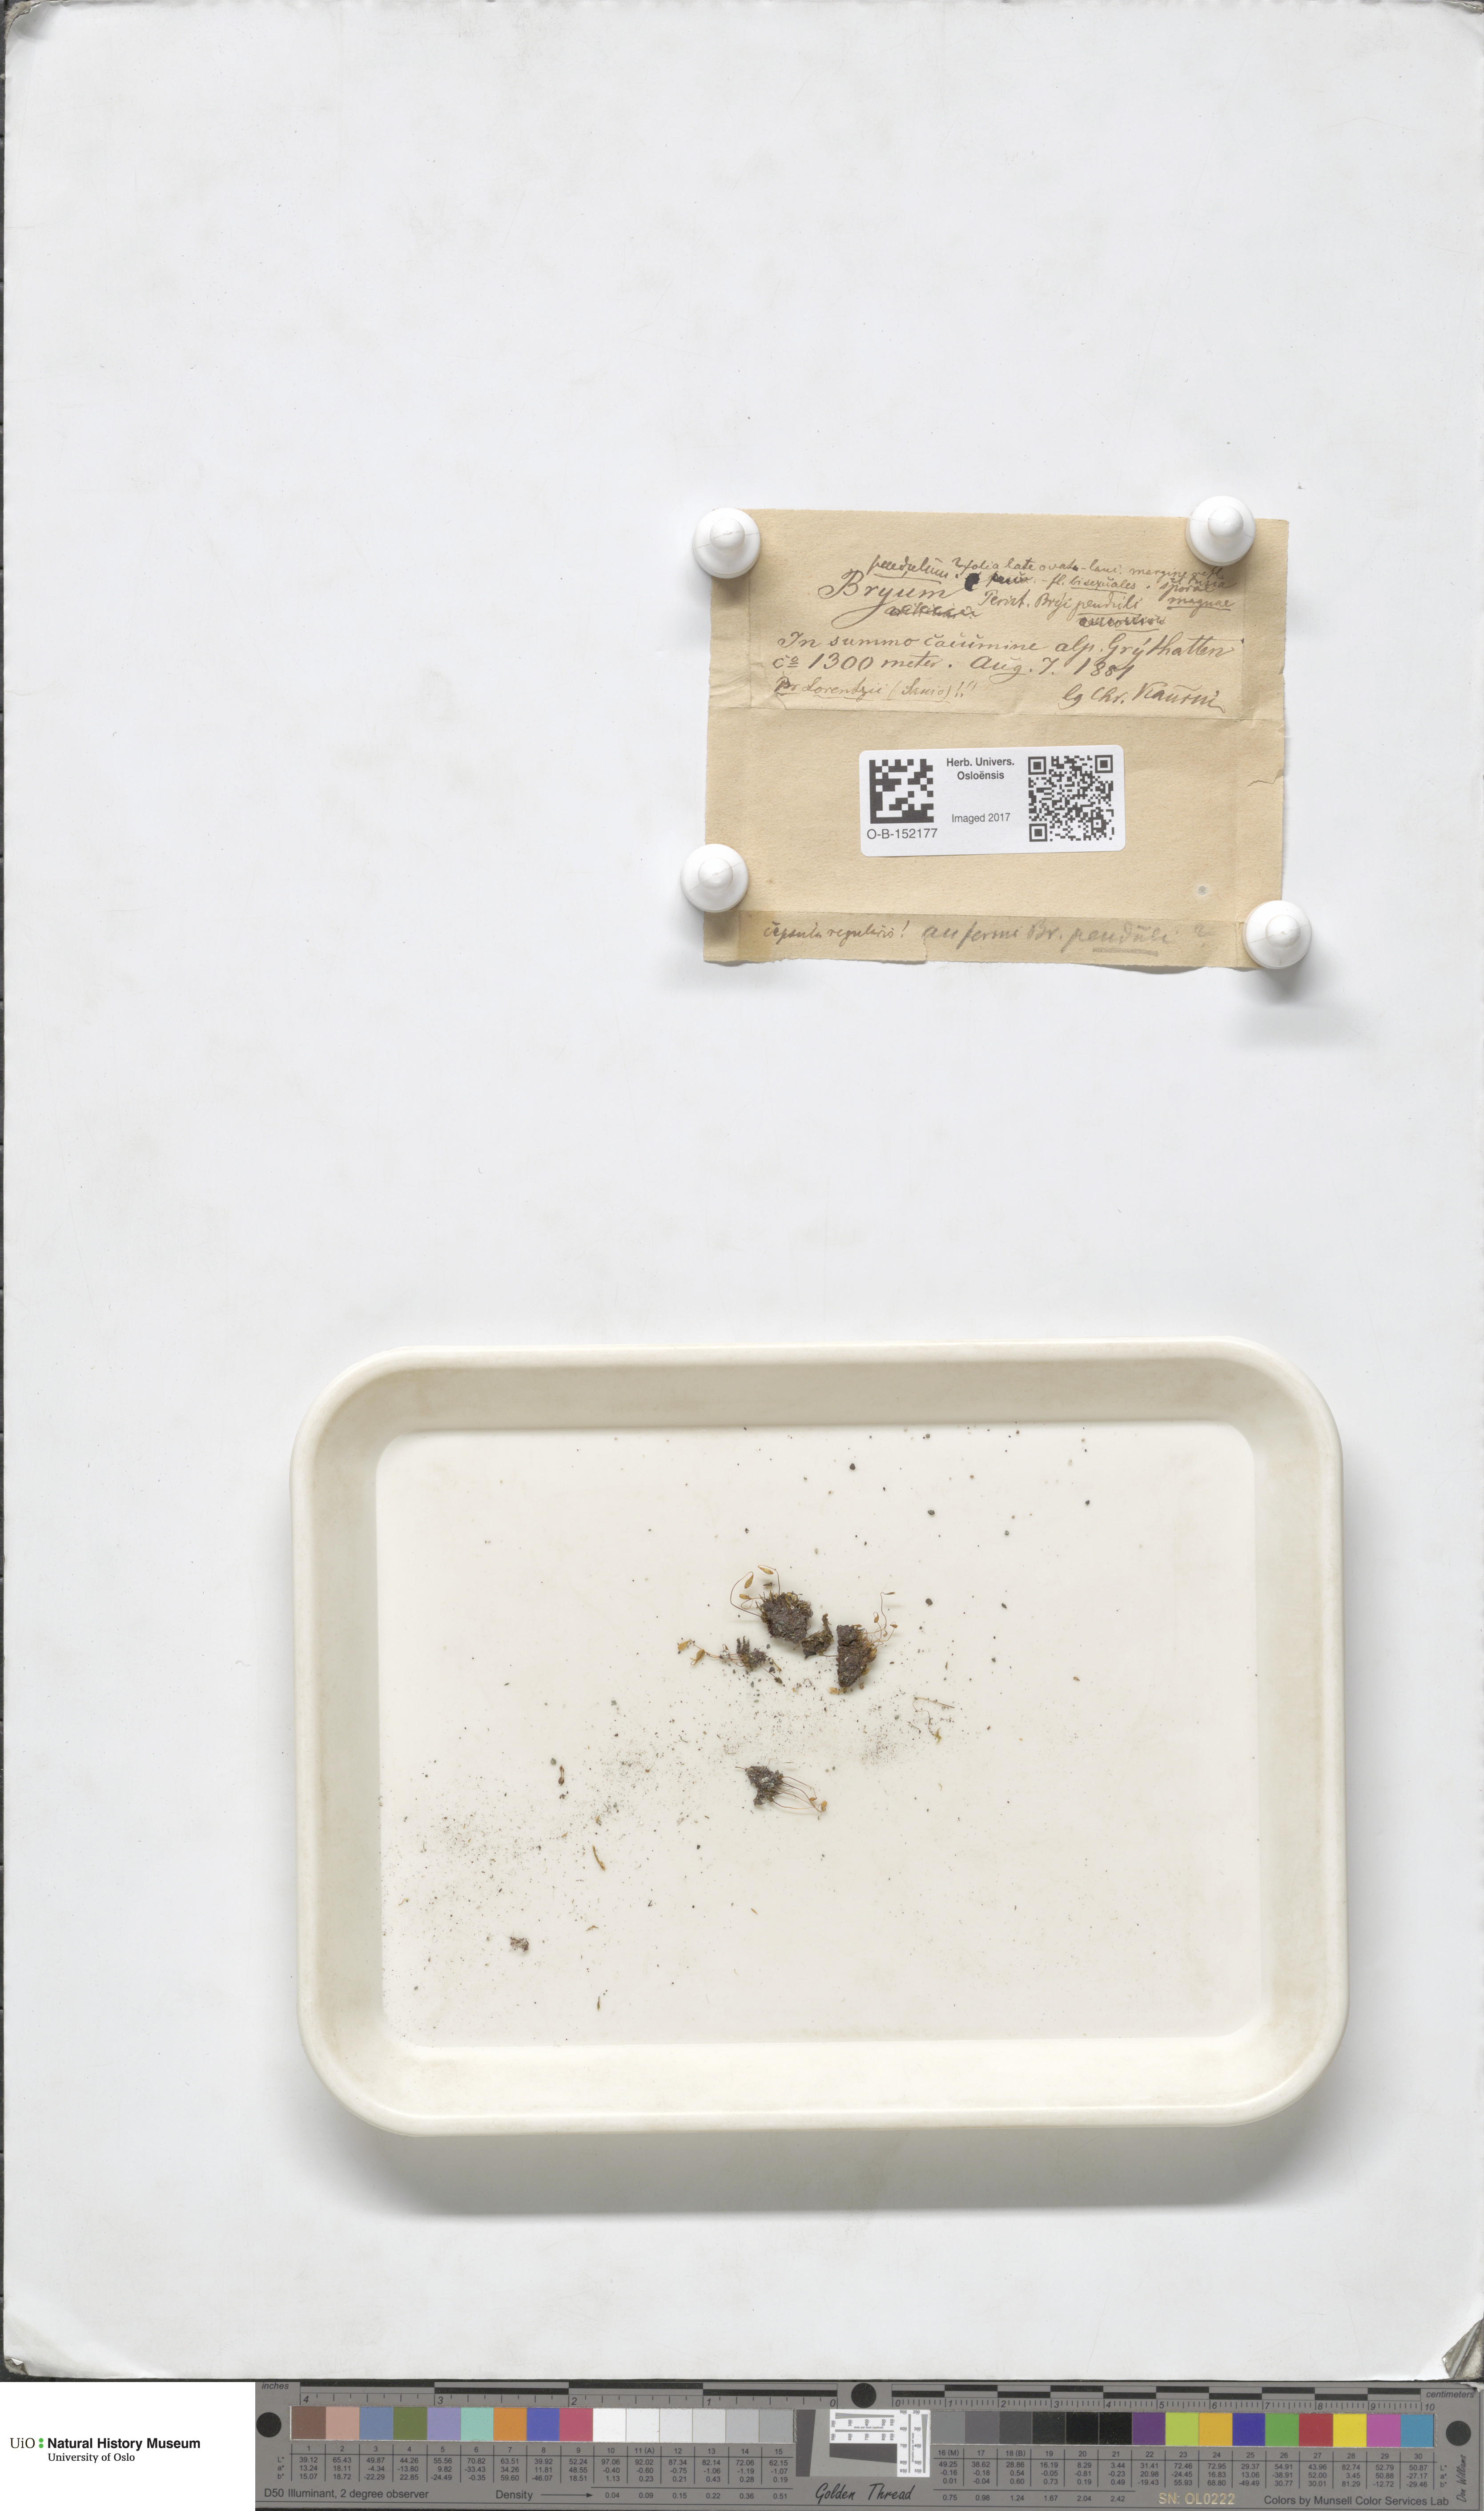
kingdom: Plantae
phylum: Bryophyta
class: Bryopsida
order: Bryales
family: Bryaceae
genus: Ptychostomum
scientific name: Ptychostomum compactum
